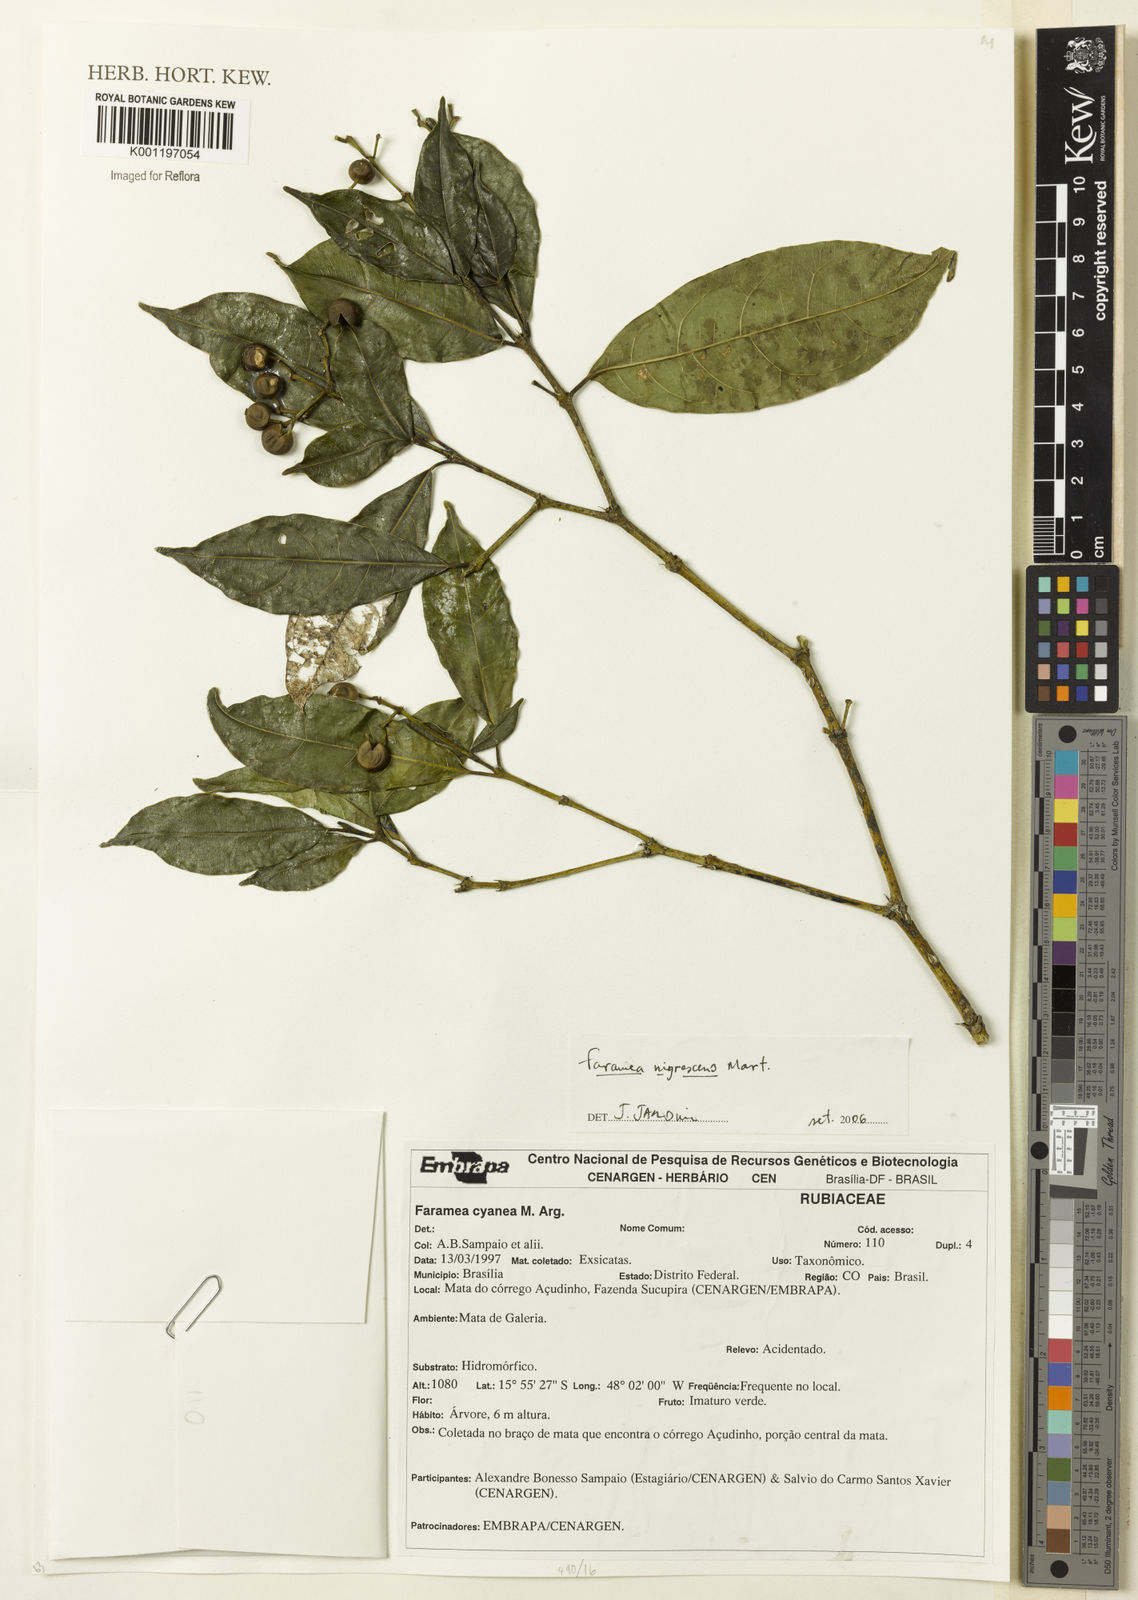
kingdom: Plantae
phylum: Tracheophyta
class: Magnoliopsida
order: Gentianales
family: Rubiaceae
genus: Faramea
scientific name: Faramea nigrescens
